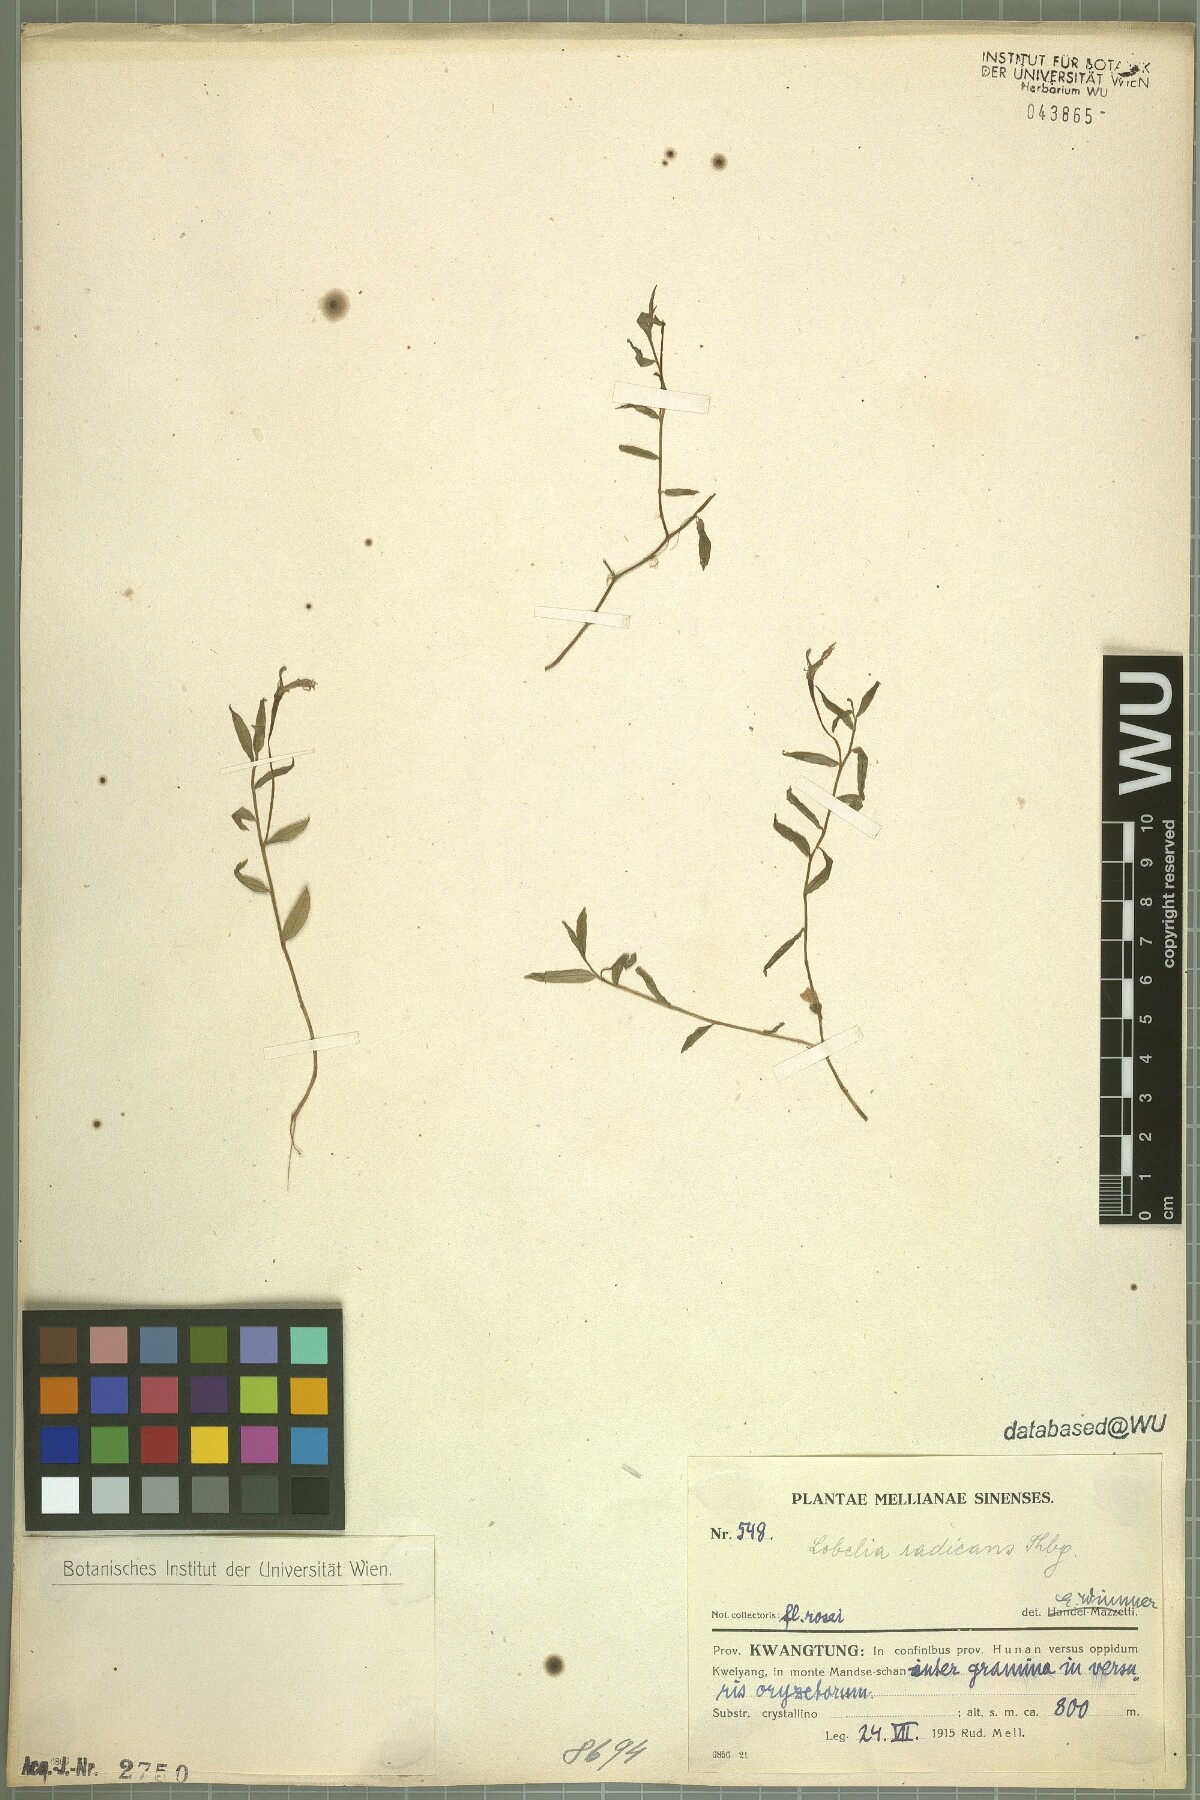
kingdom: Plantae
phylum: Tracheophyta
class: Magnoliopsida
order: Asterales
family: Campanulaceae
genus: Lobelia
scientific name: Lobelia chinensis
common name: Chinese lobelia
